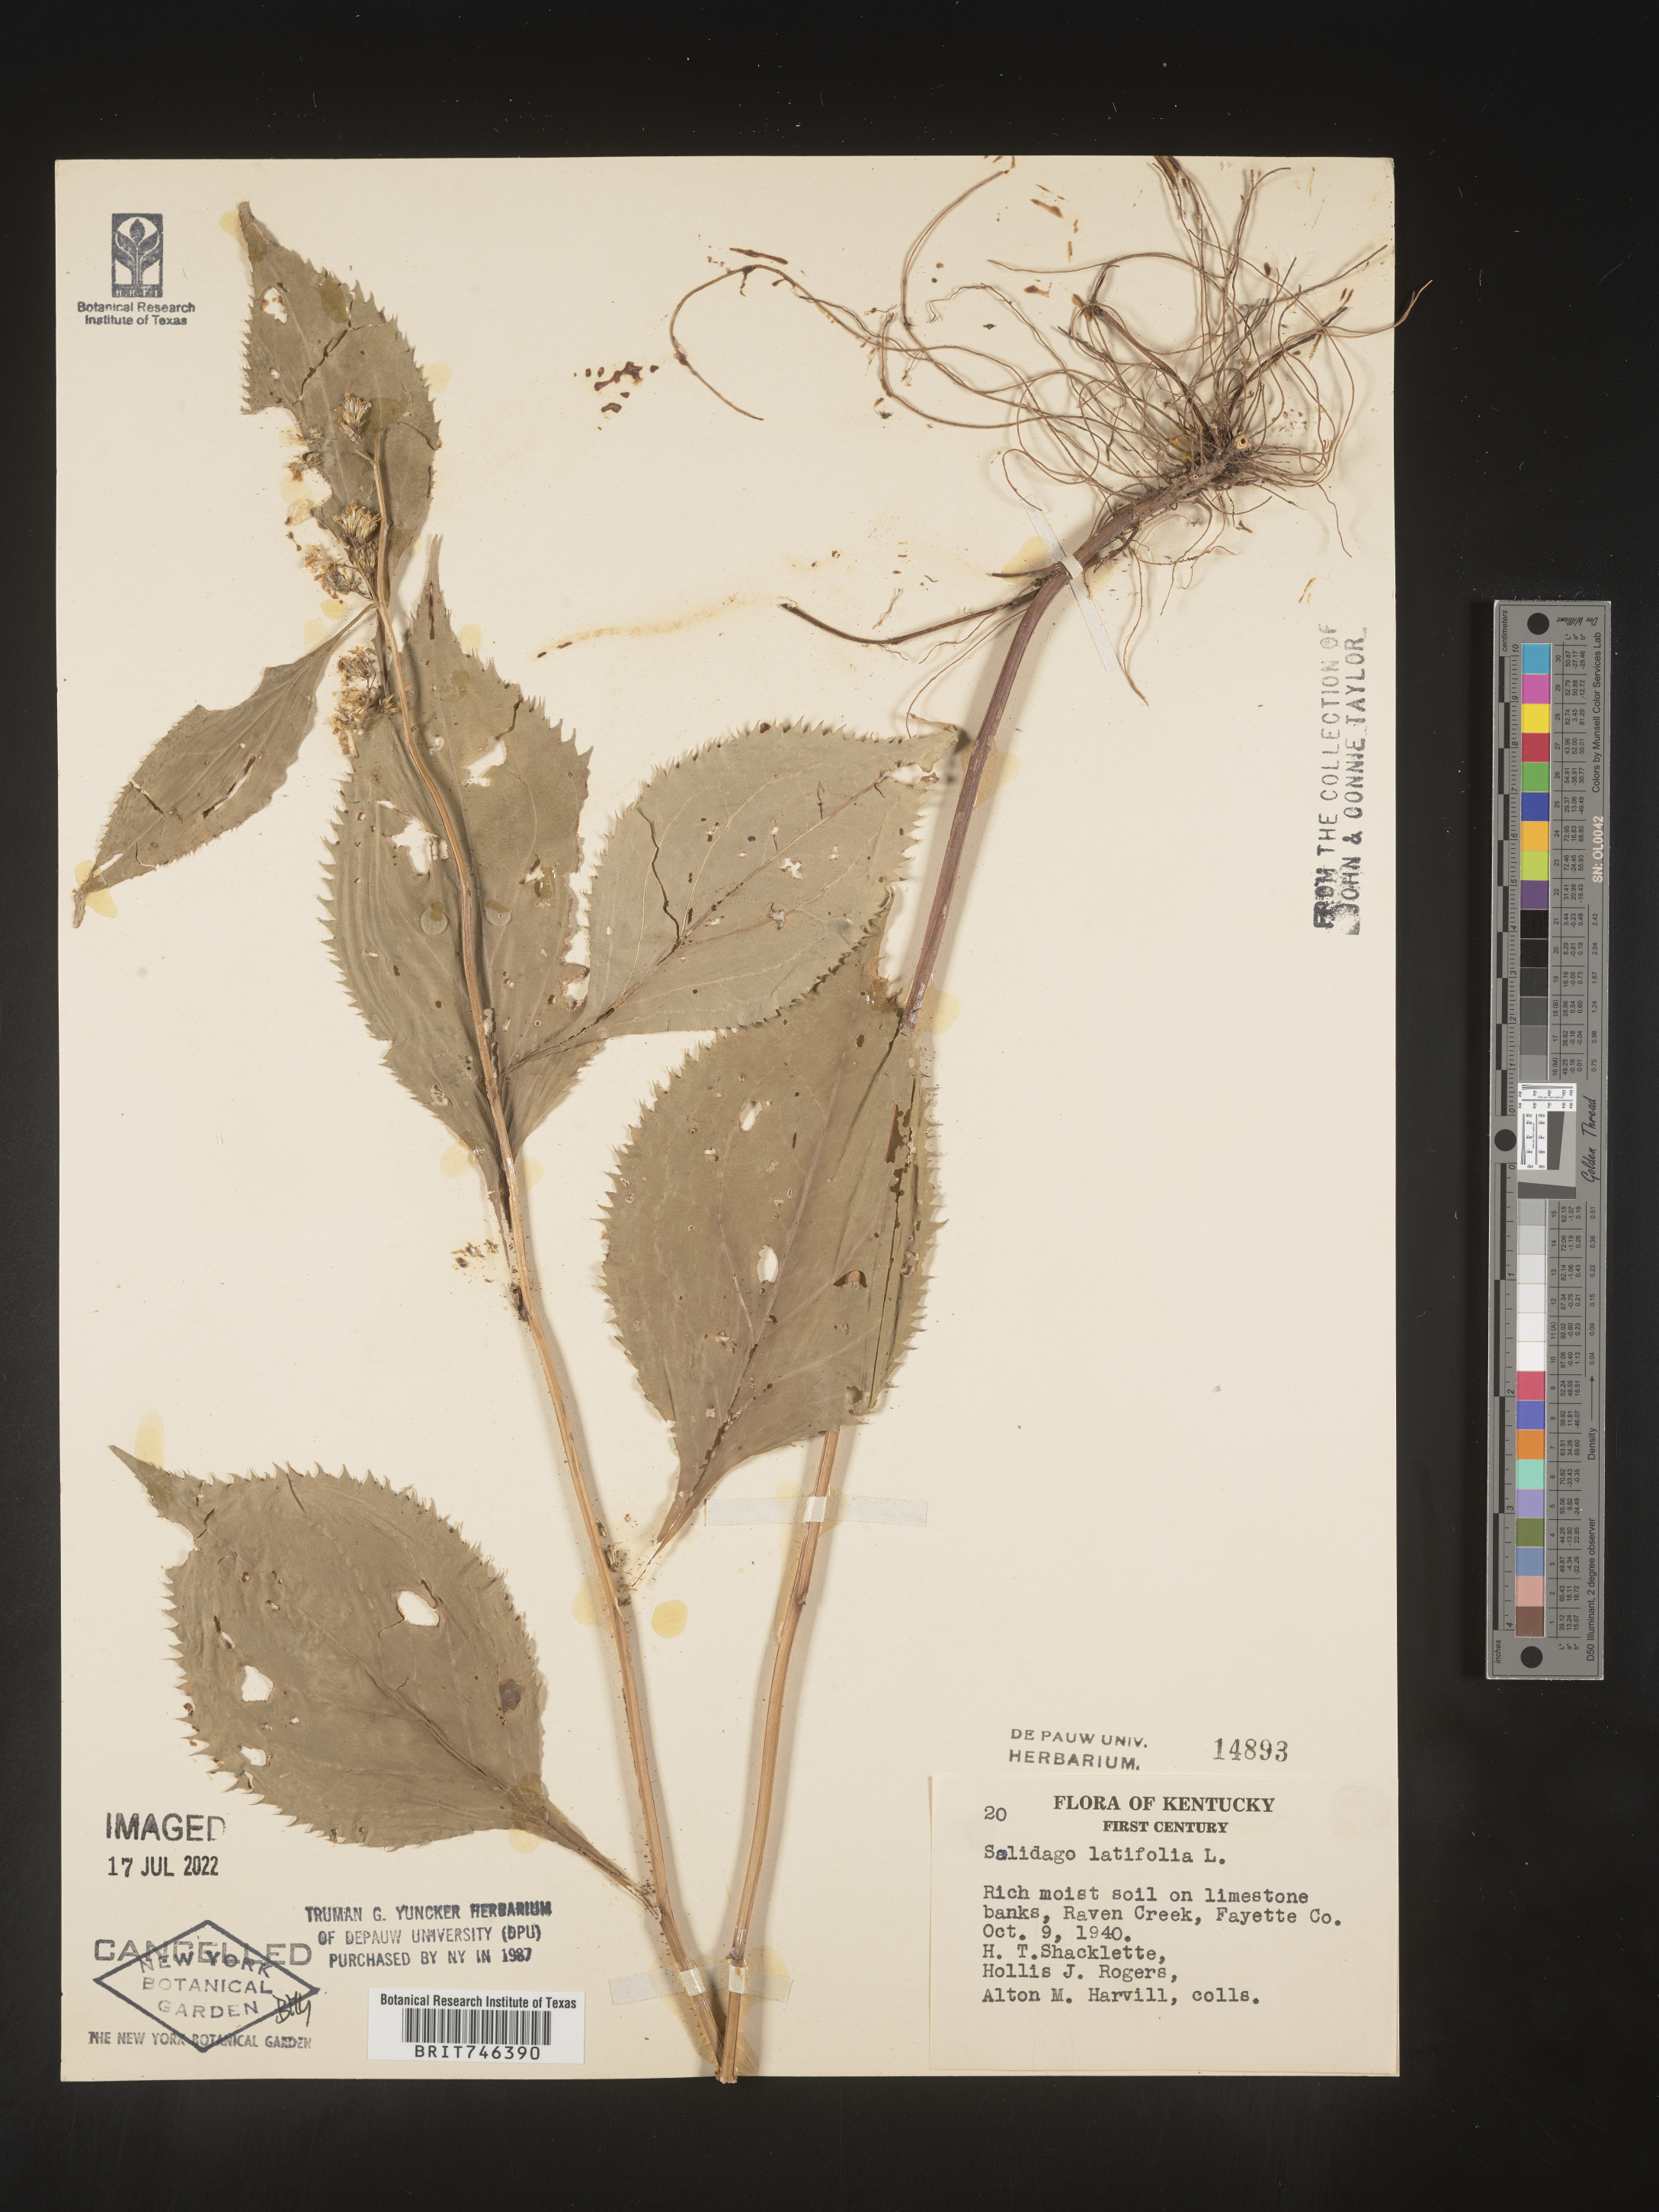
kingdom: Plantae
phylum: Tracheophyta
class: Magnoliopsida
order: Asterales
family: Asteraceae
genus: Solidago
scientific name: Solidago flexicaulis
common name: Zig-zag goldenrod
